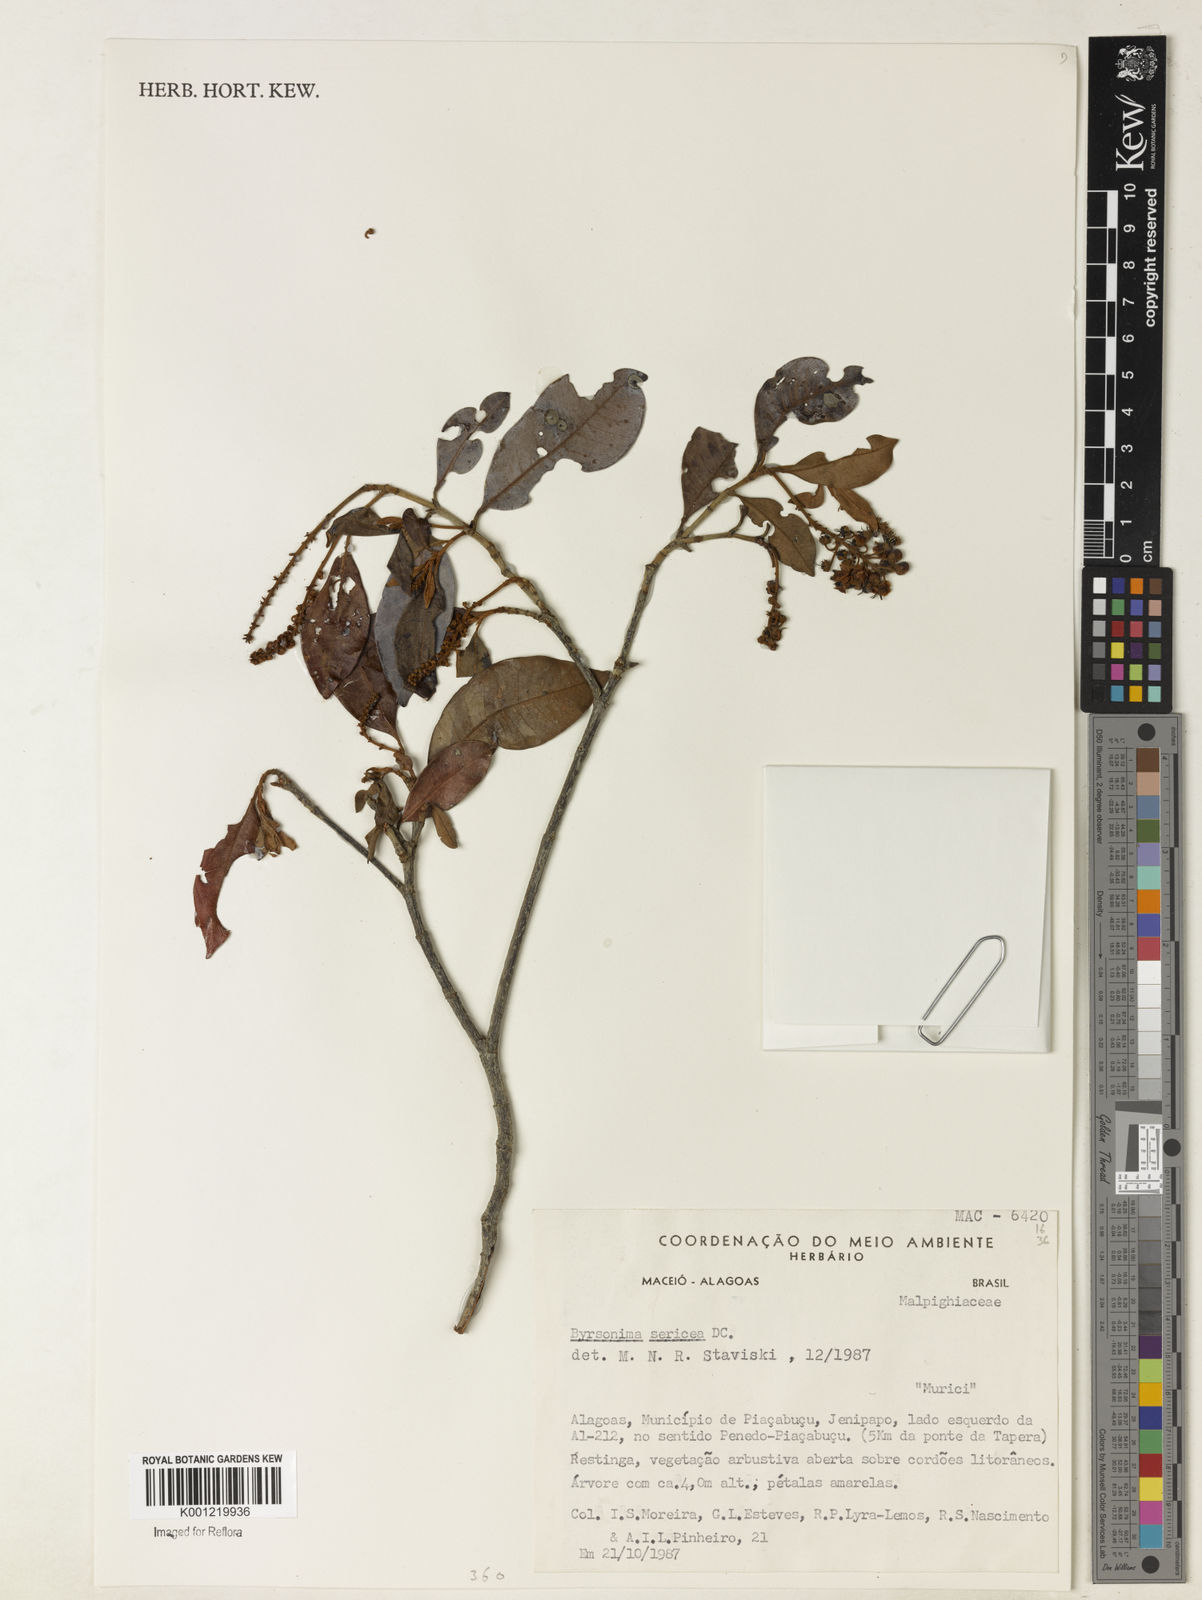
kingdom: Plantae
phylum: Tracheophyta
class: Magnoliopsida
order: Malpighiales
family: Malpighiaceae
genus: Byrsonima
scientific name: Byrsonima sericea
